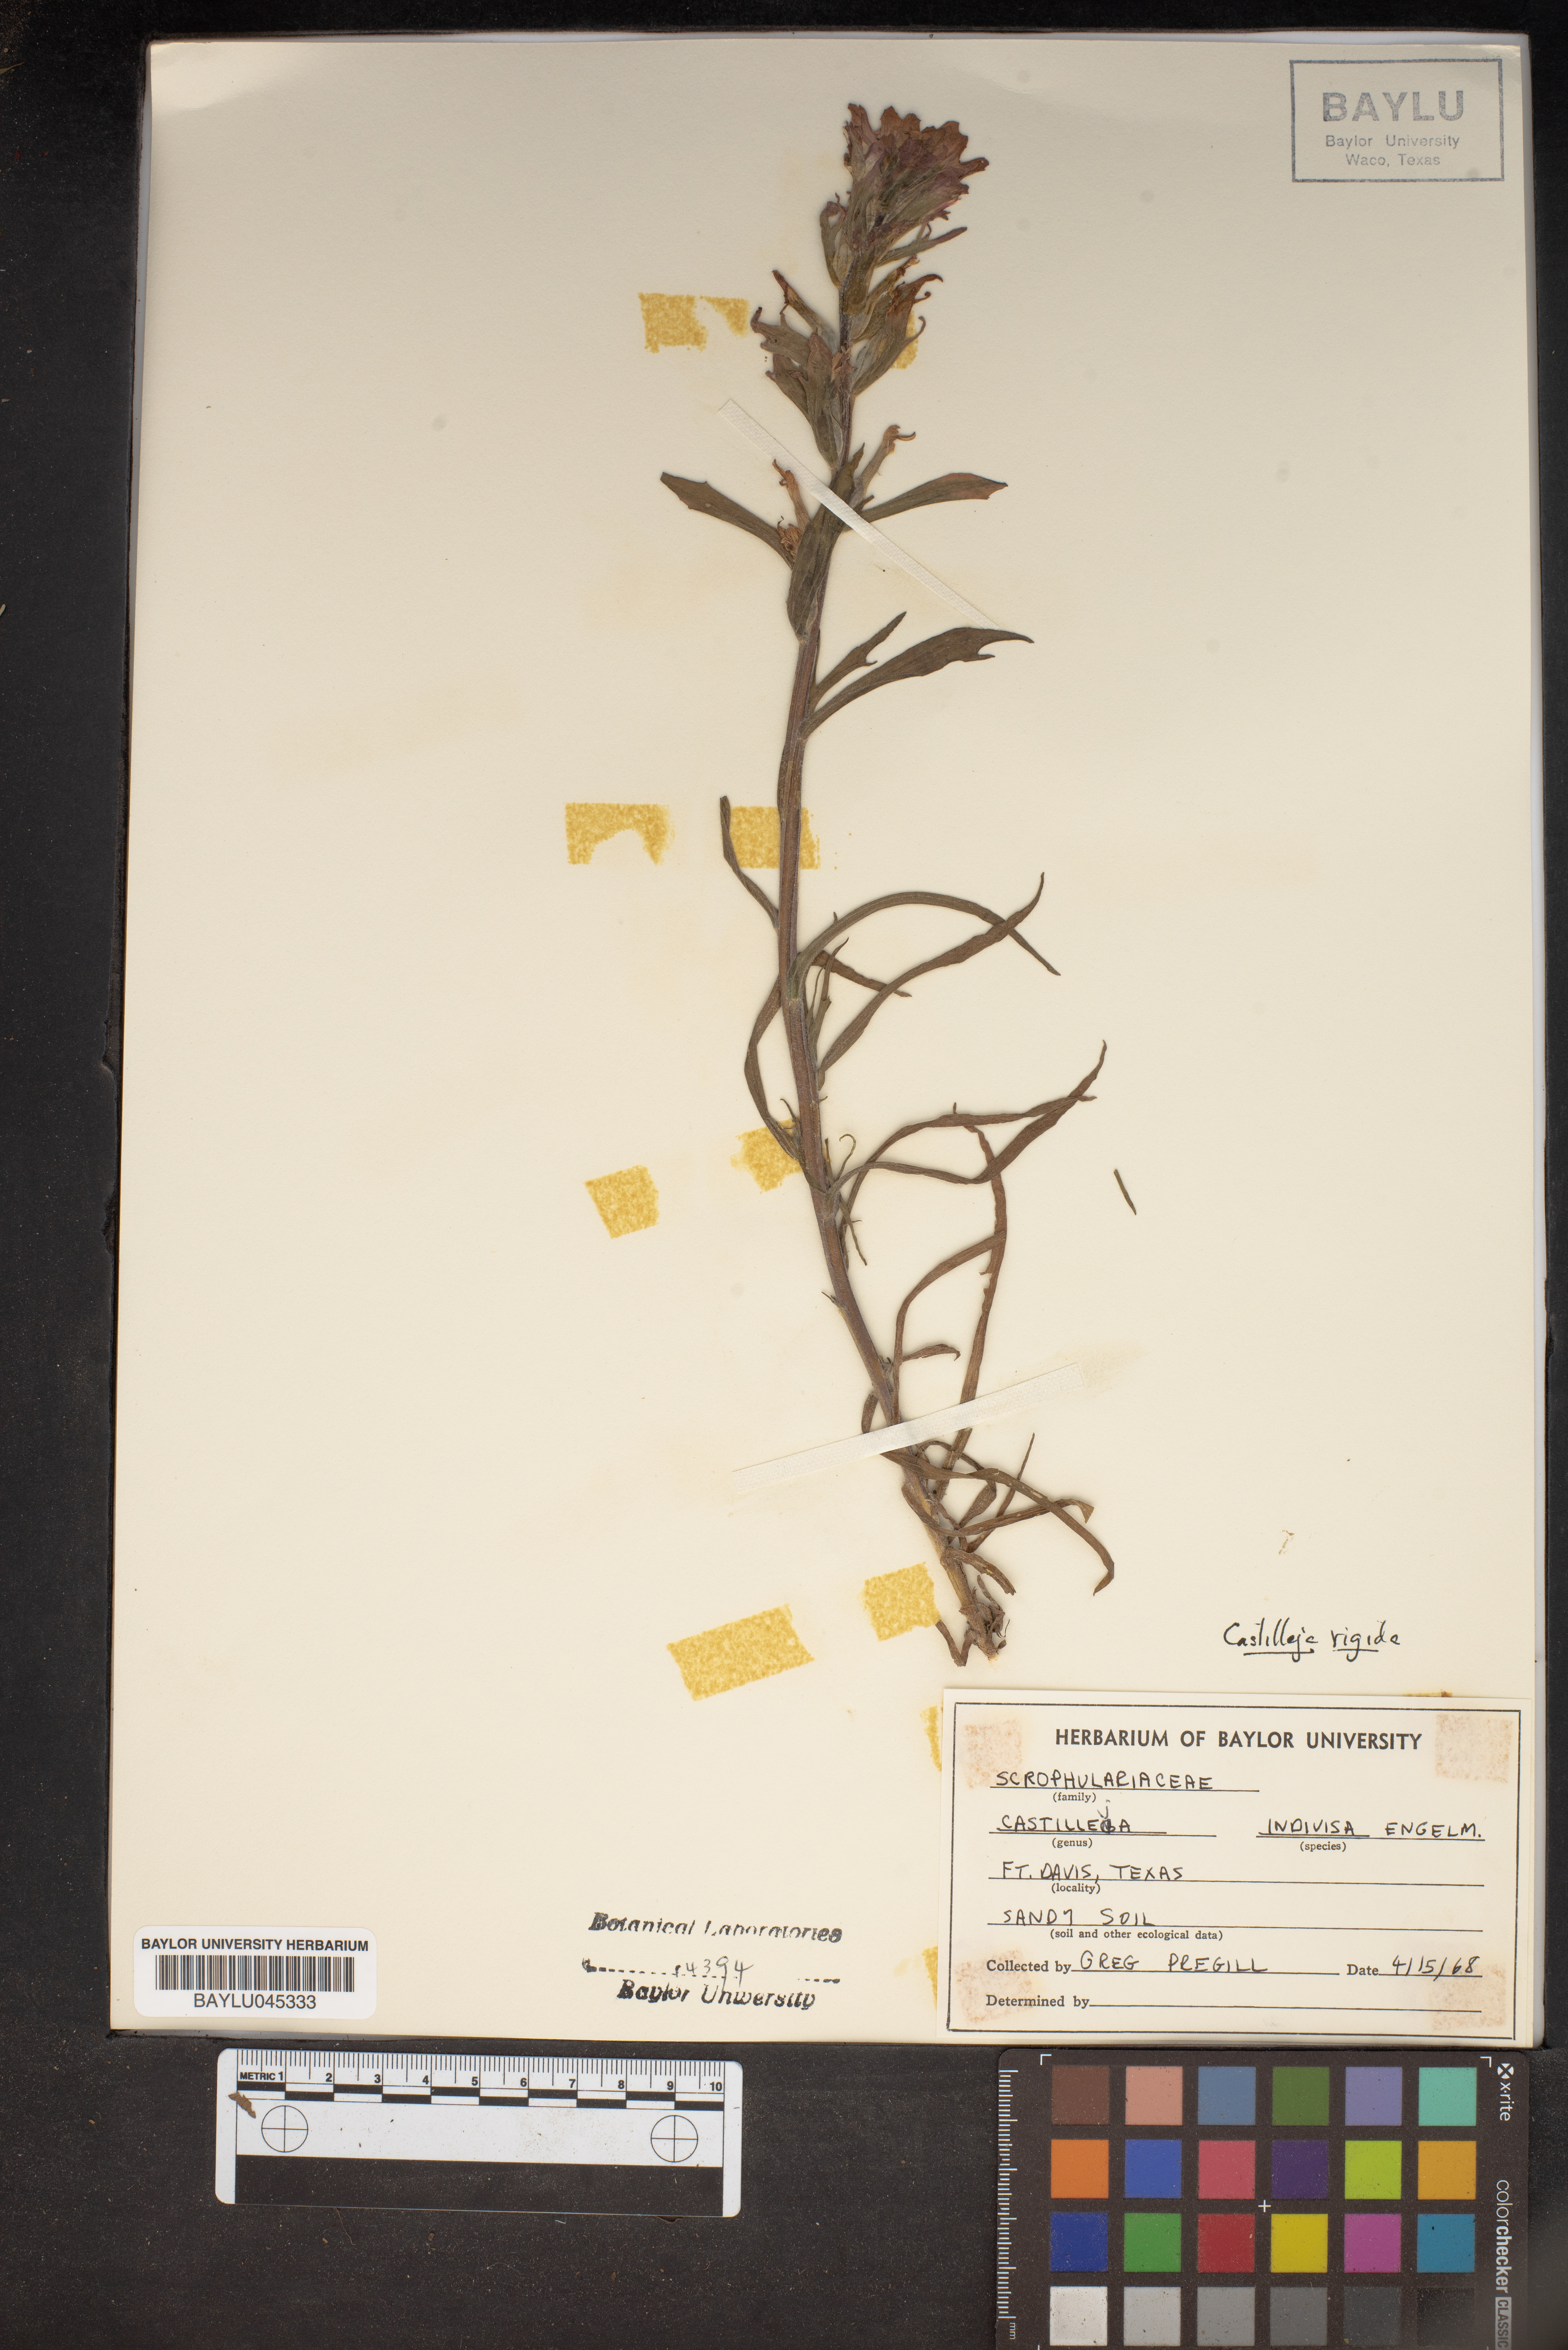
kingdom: Plantae
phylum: Tracheophyta
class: Magnoliopsida
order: Lamiales
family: Orobanchaceae
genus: Castilleja
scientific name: Castilleja indivisa
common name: Texas paintbrush
